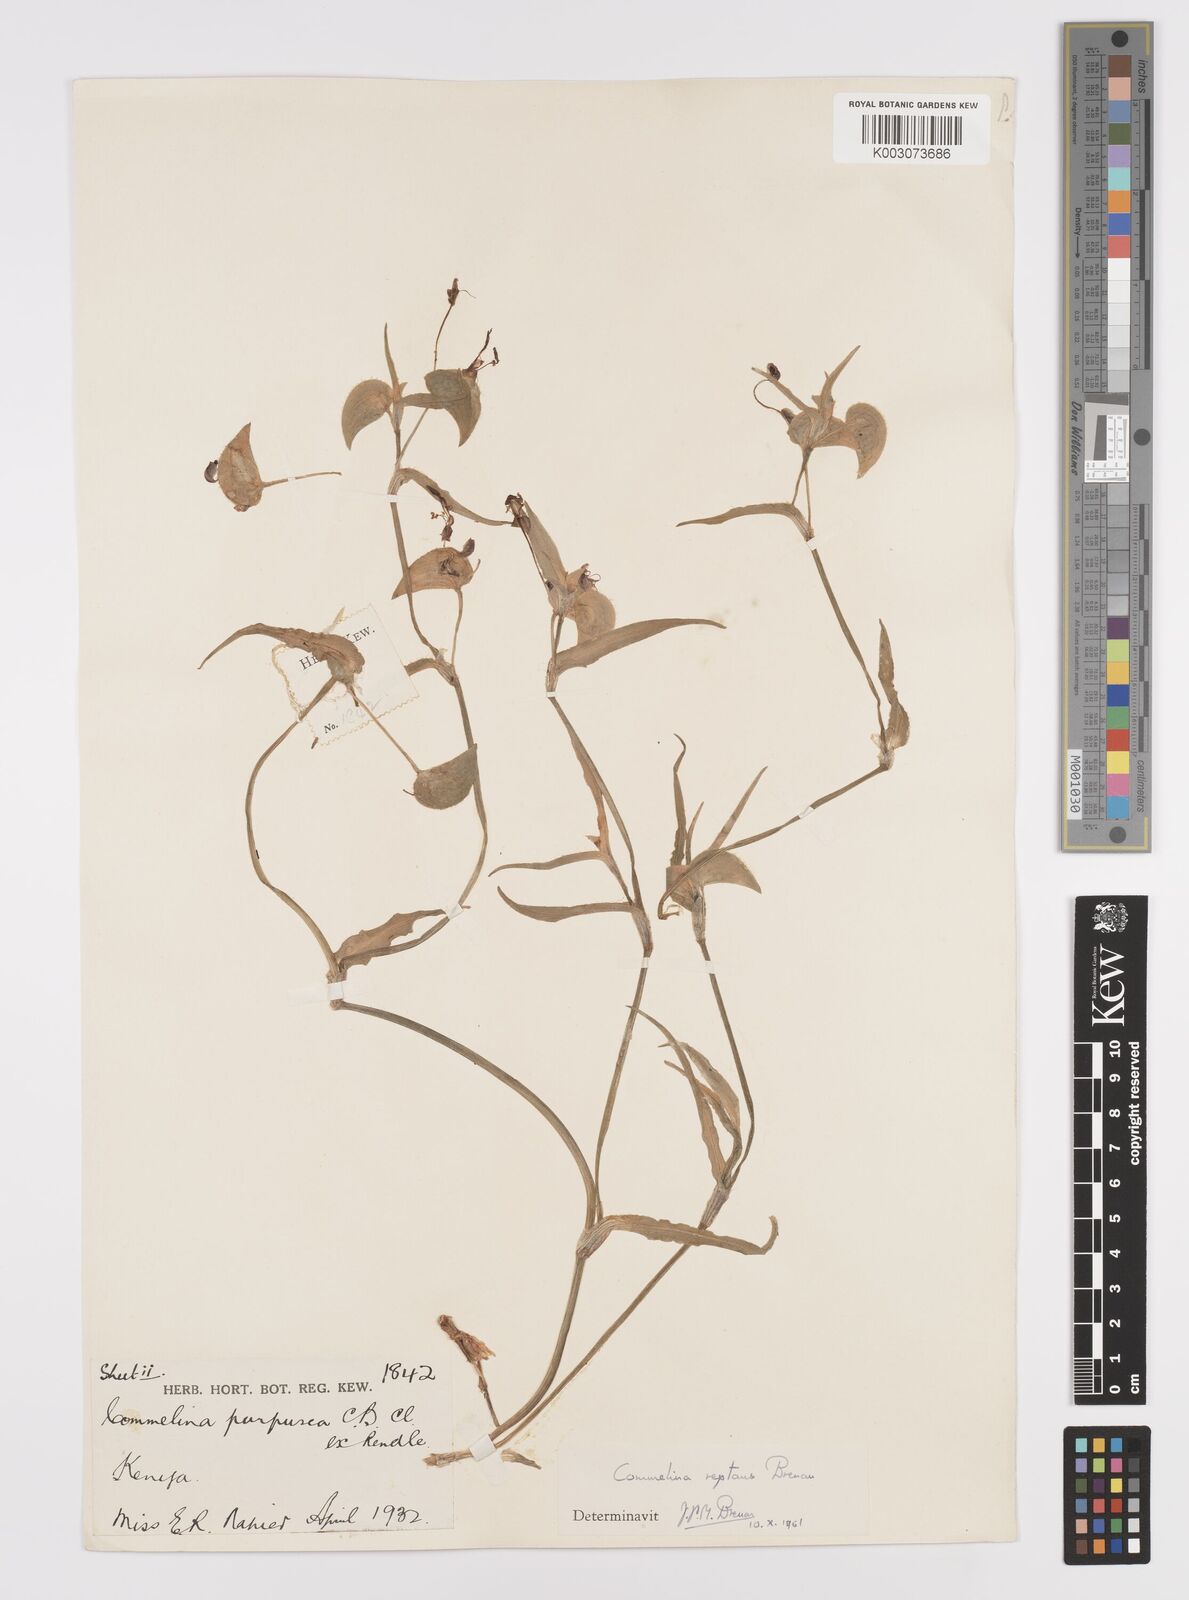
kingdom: Plantae
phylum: Tracheophyta
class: Liliopsida
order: Commelinales
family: Commelinaceae
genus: Commelina
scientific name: Commelina reptans
